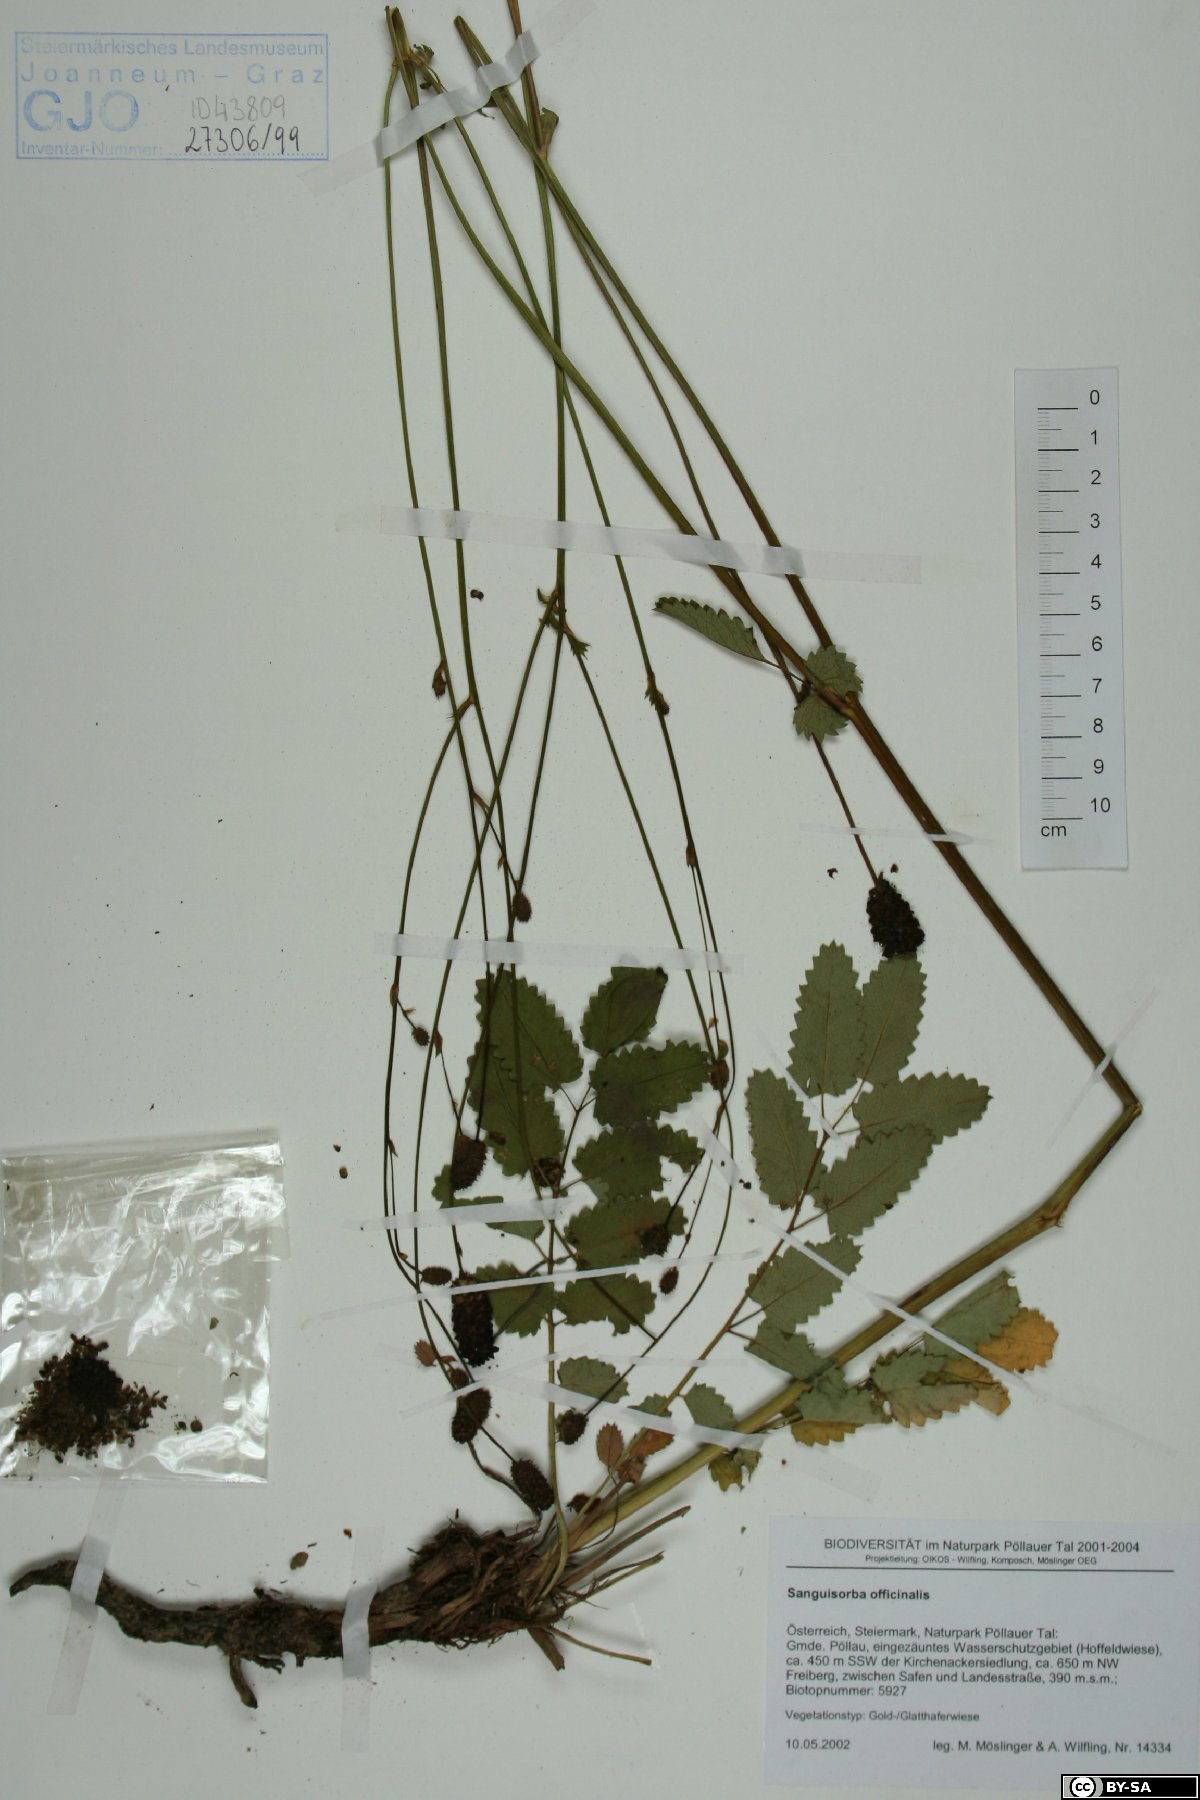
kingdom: Plantae
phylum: Tracheophyta
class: Magnoliopsida
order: Caryophyllales
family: Caryophyllaceae
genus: Saponaria
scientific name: Saponaria officinalis
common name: Soapwort
